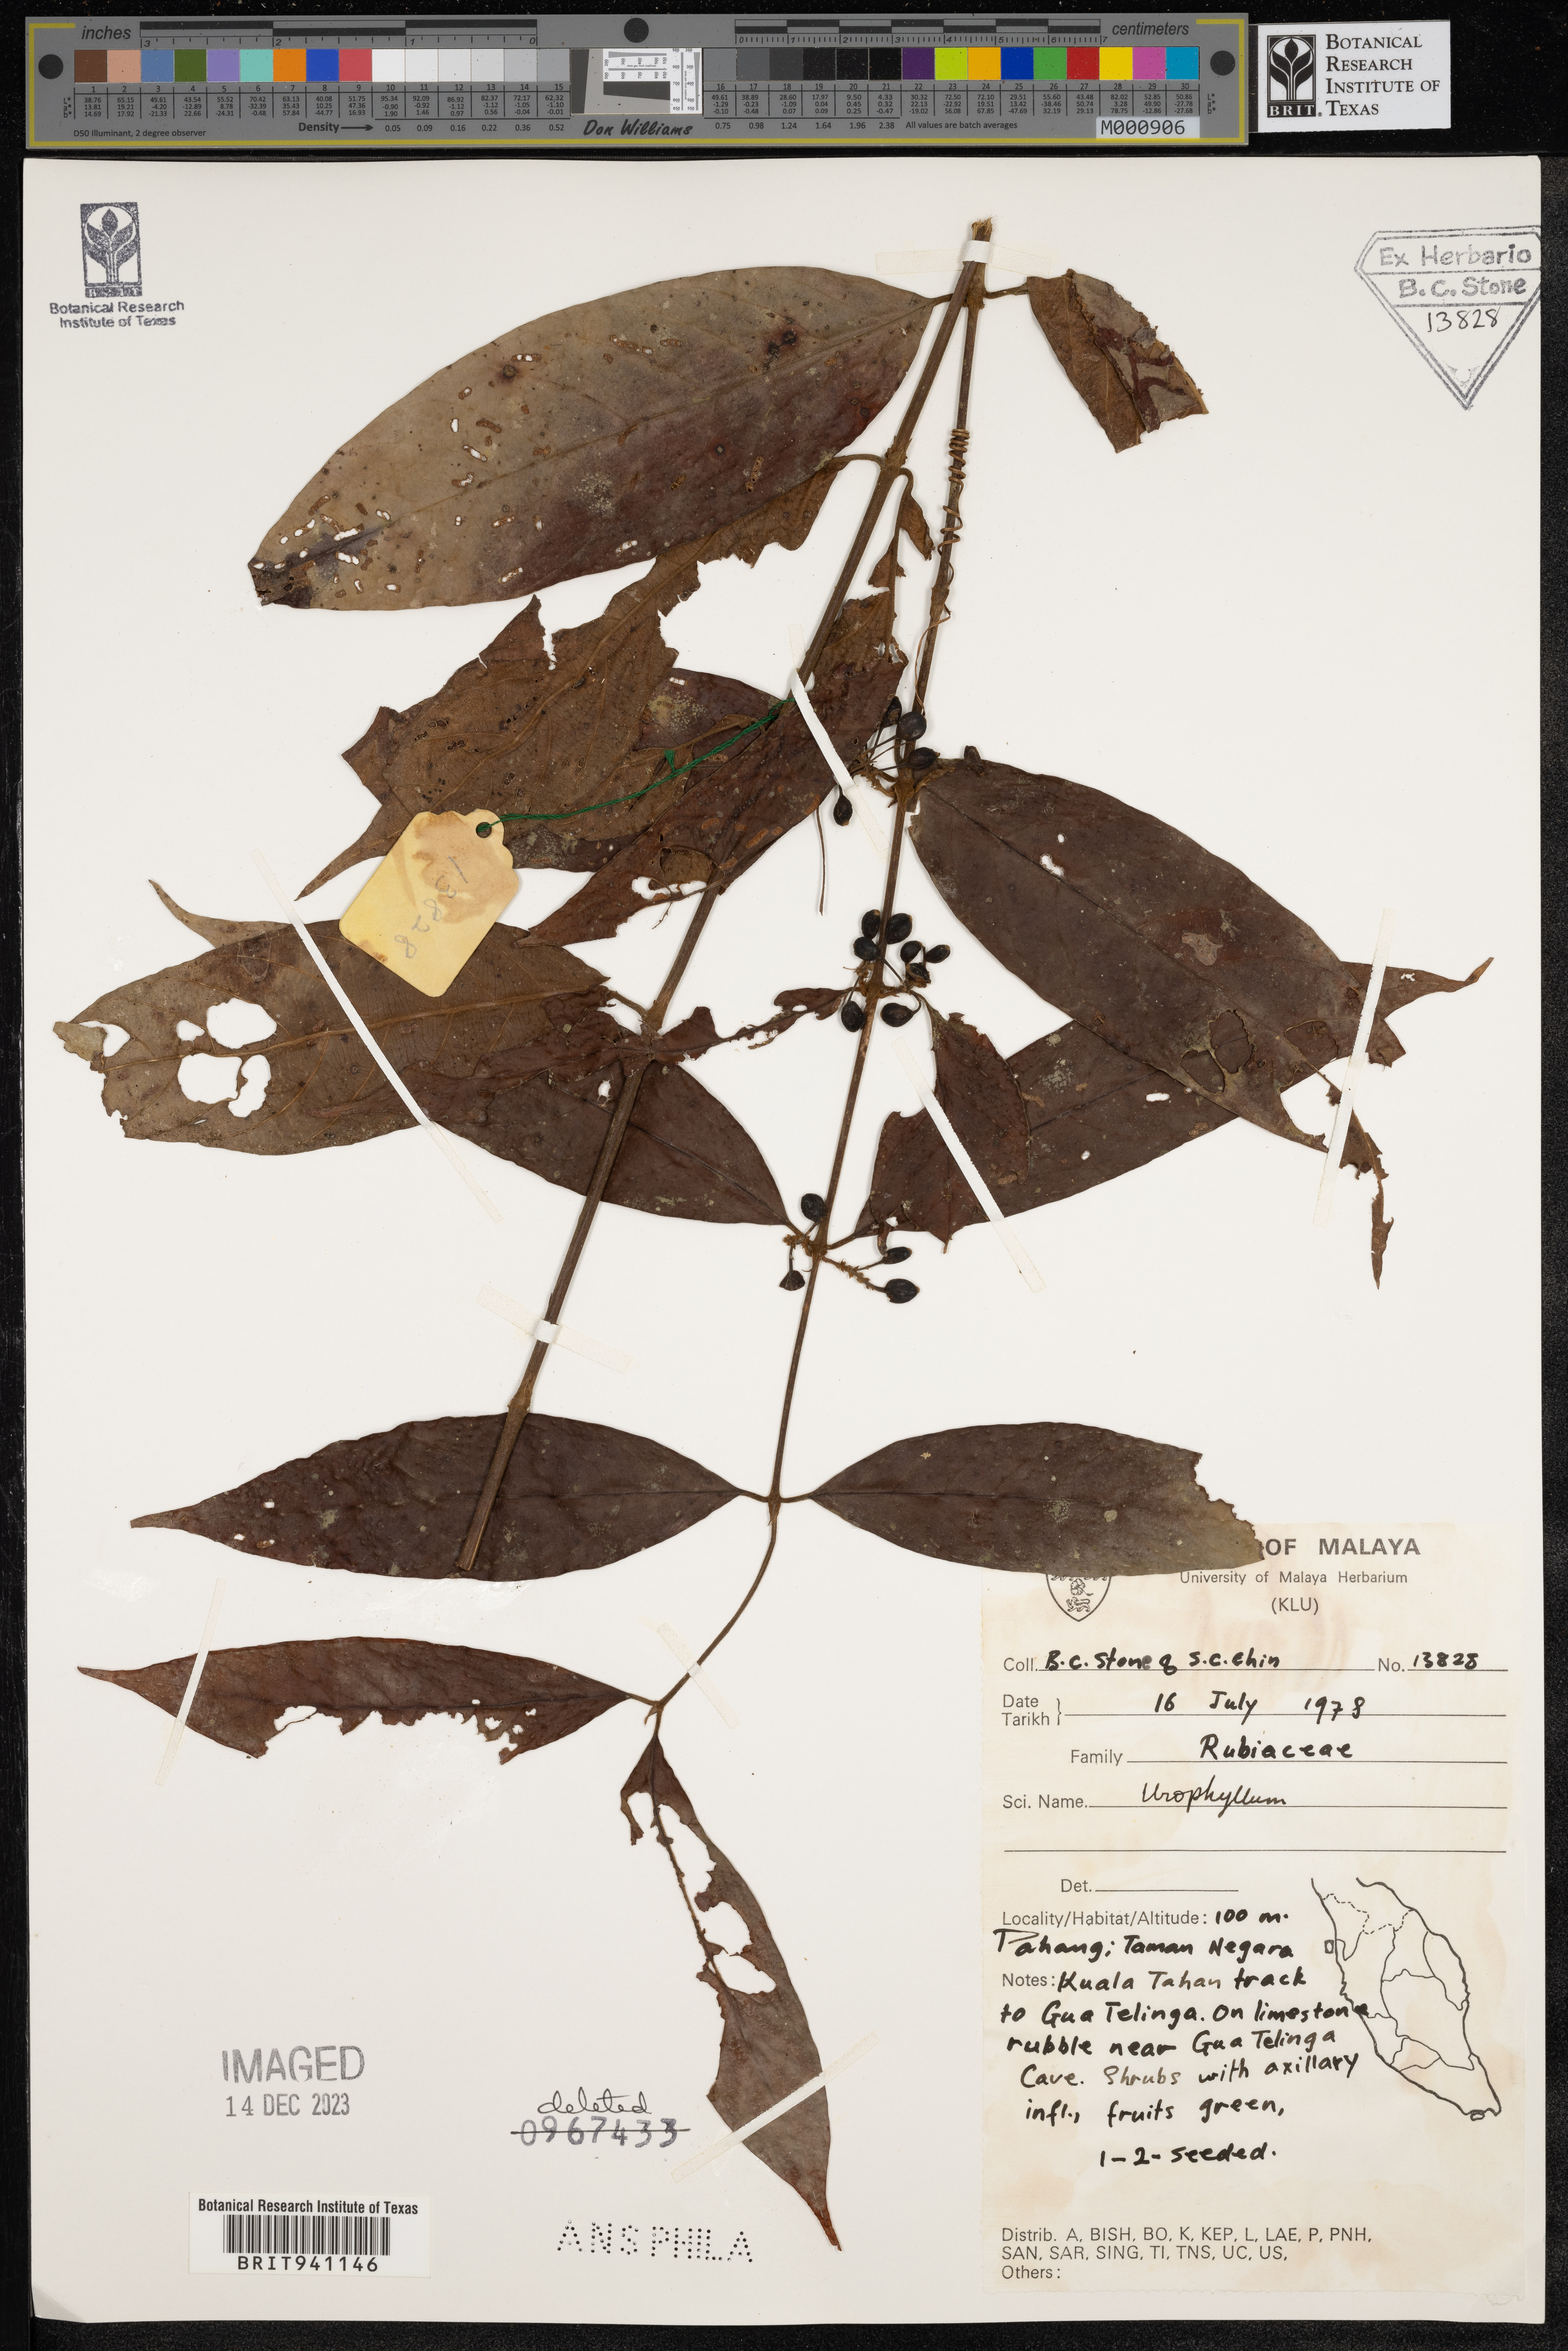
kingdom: Plantae
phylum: Tracheophyta
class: Magnoliopsida
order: Gentianales
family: Rubiaceae
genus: Urophyllum
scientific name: Urophyllum
